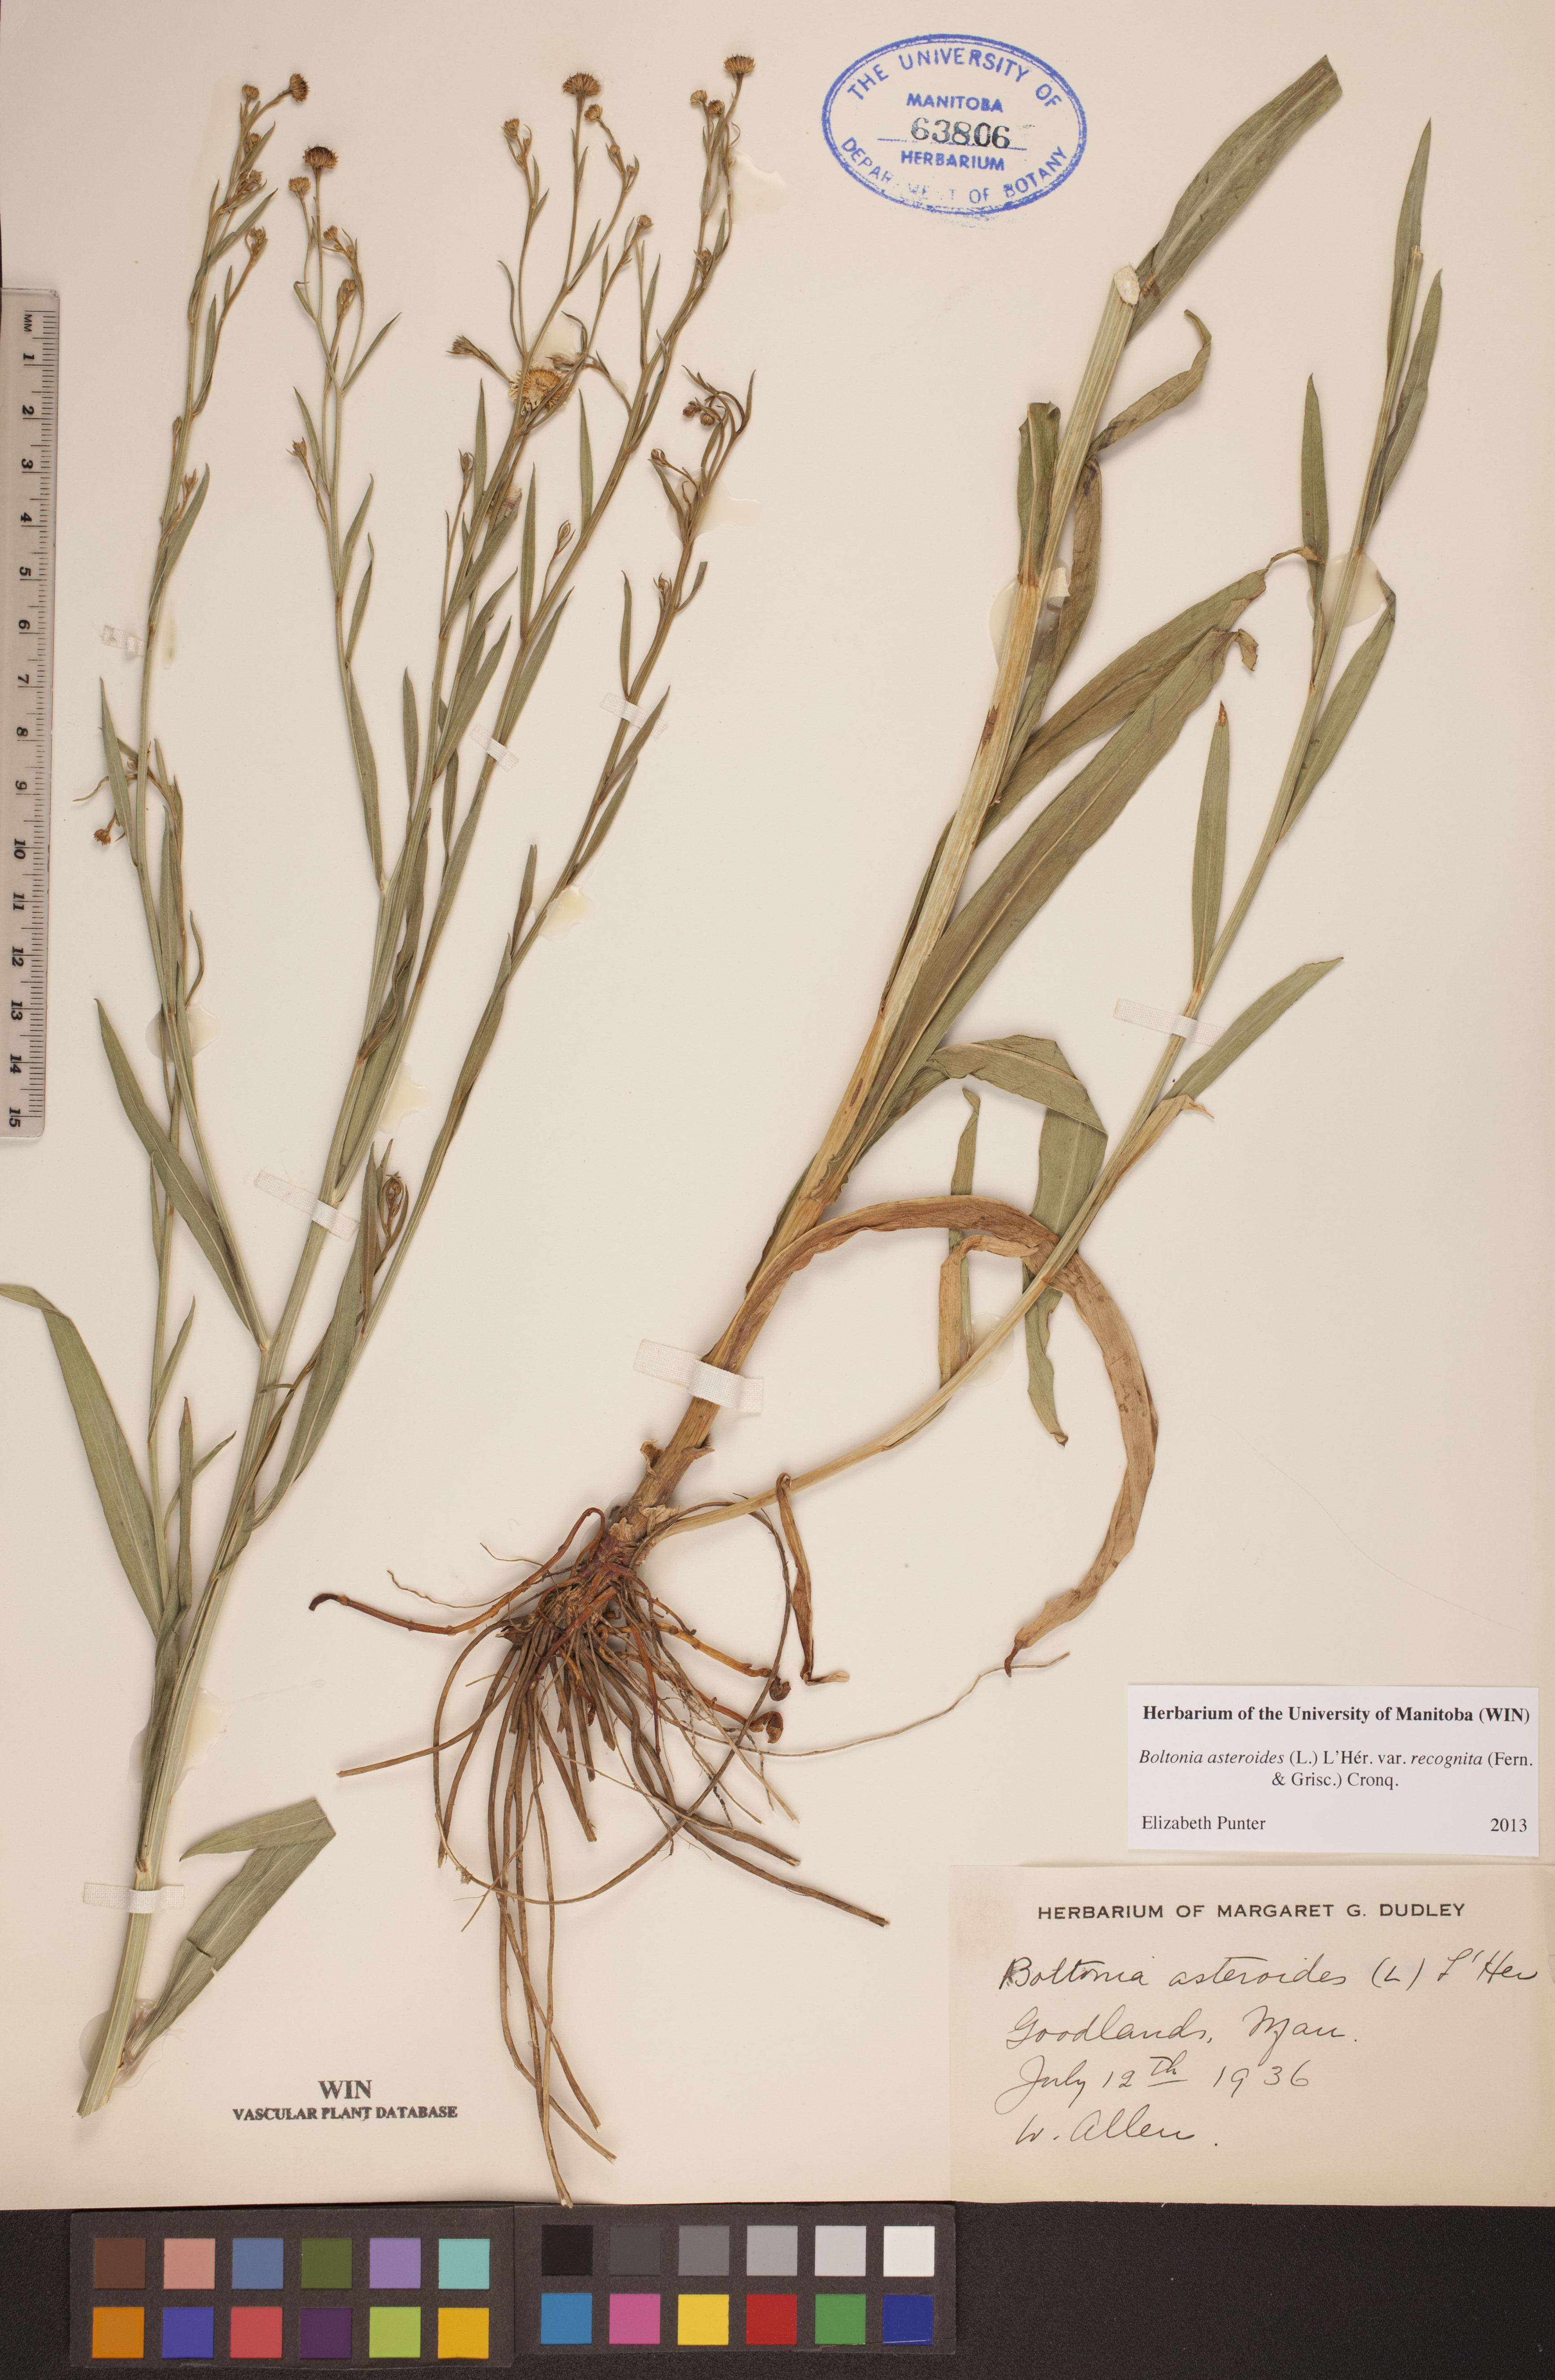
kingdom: Plantae
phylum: Tracheophyta
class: Magnoliopsida
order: Asterales
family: Asteraceae
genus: Boltonia
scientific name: Boltonia asteroides
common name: False chamomile
